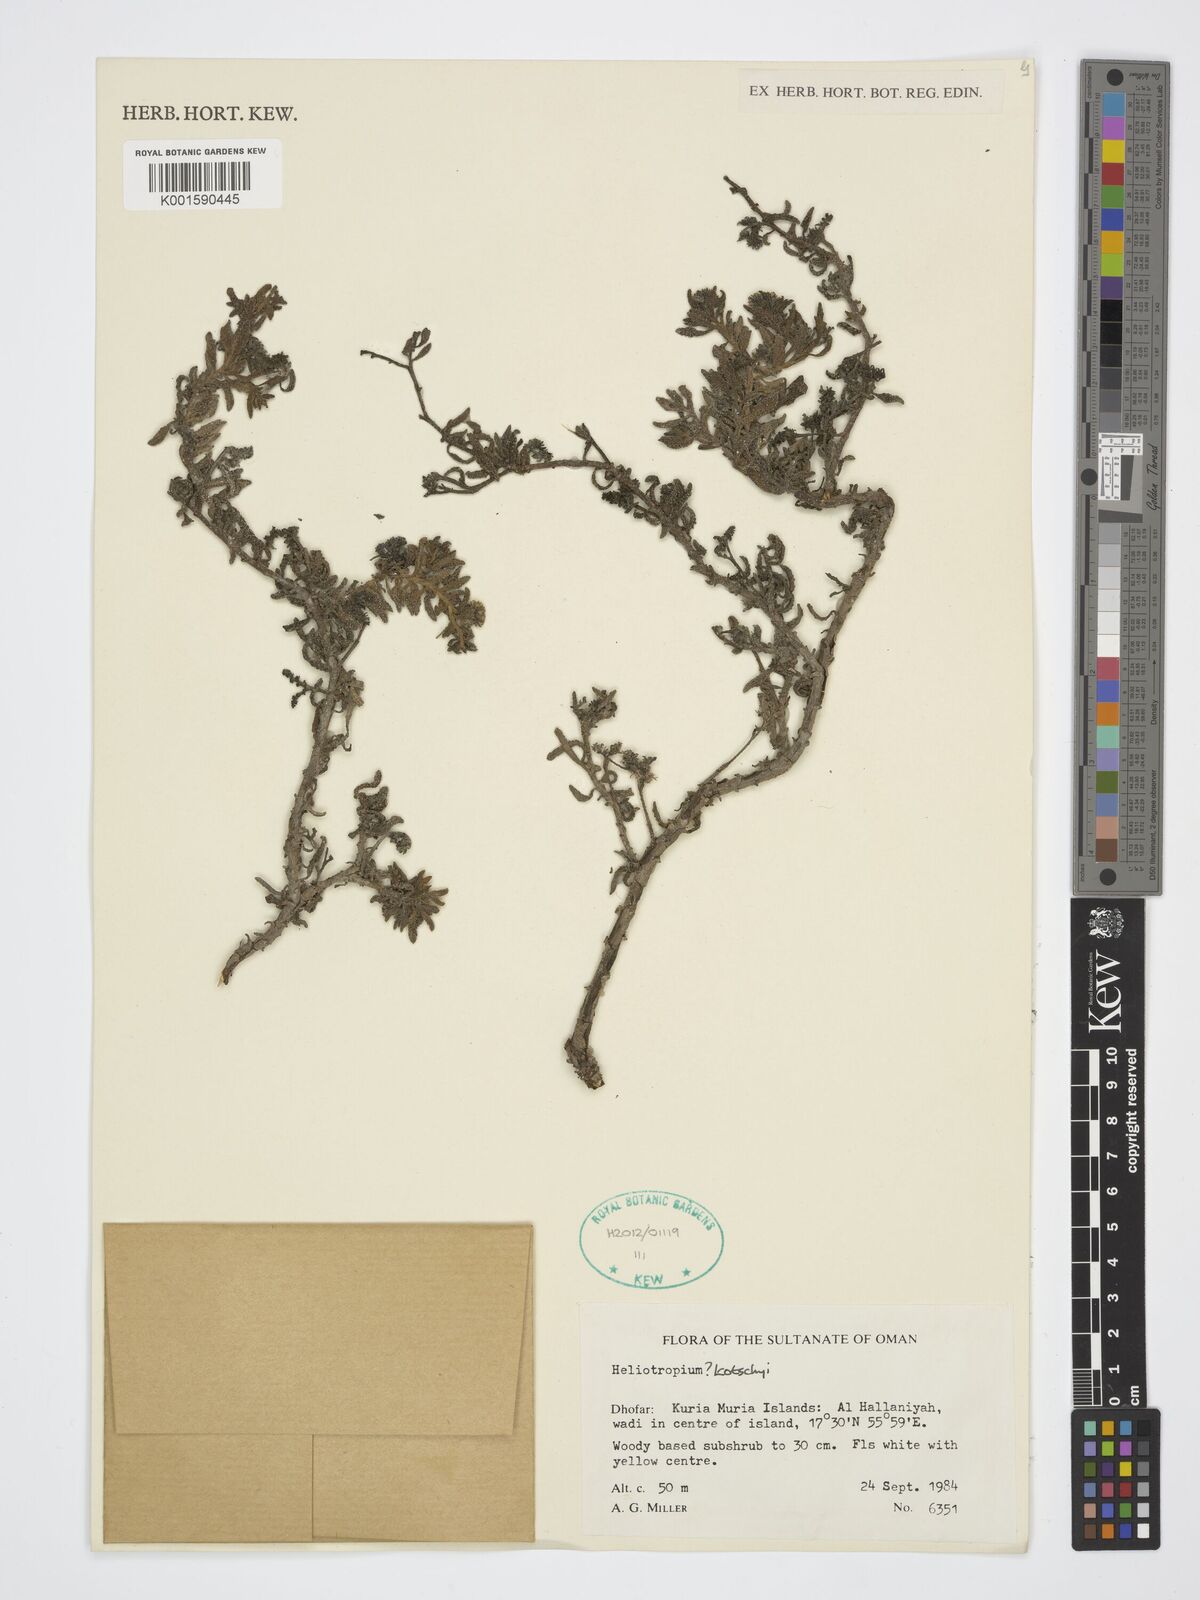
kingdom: Plantae
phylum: Tracheophyta
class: Magnoliopsida
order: Boraginales
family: Heliotropiaceae
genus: Heliotropium
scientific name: Heliotropium
